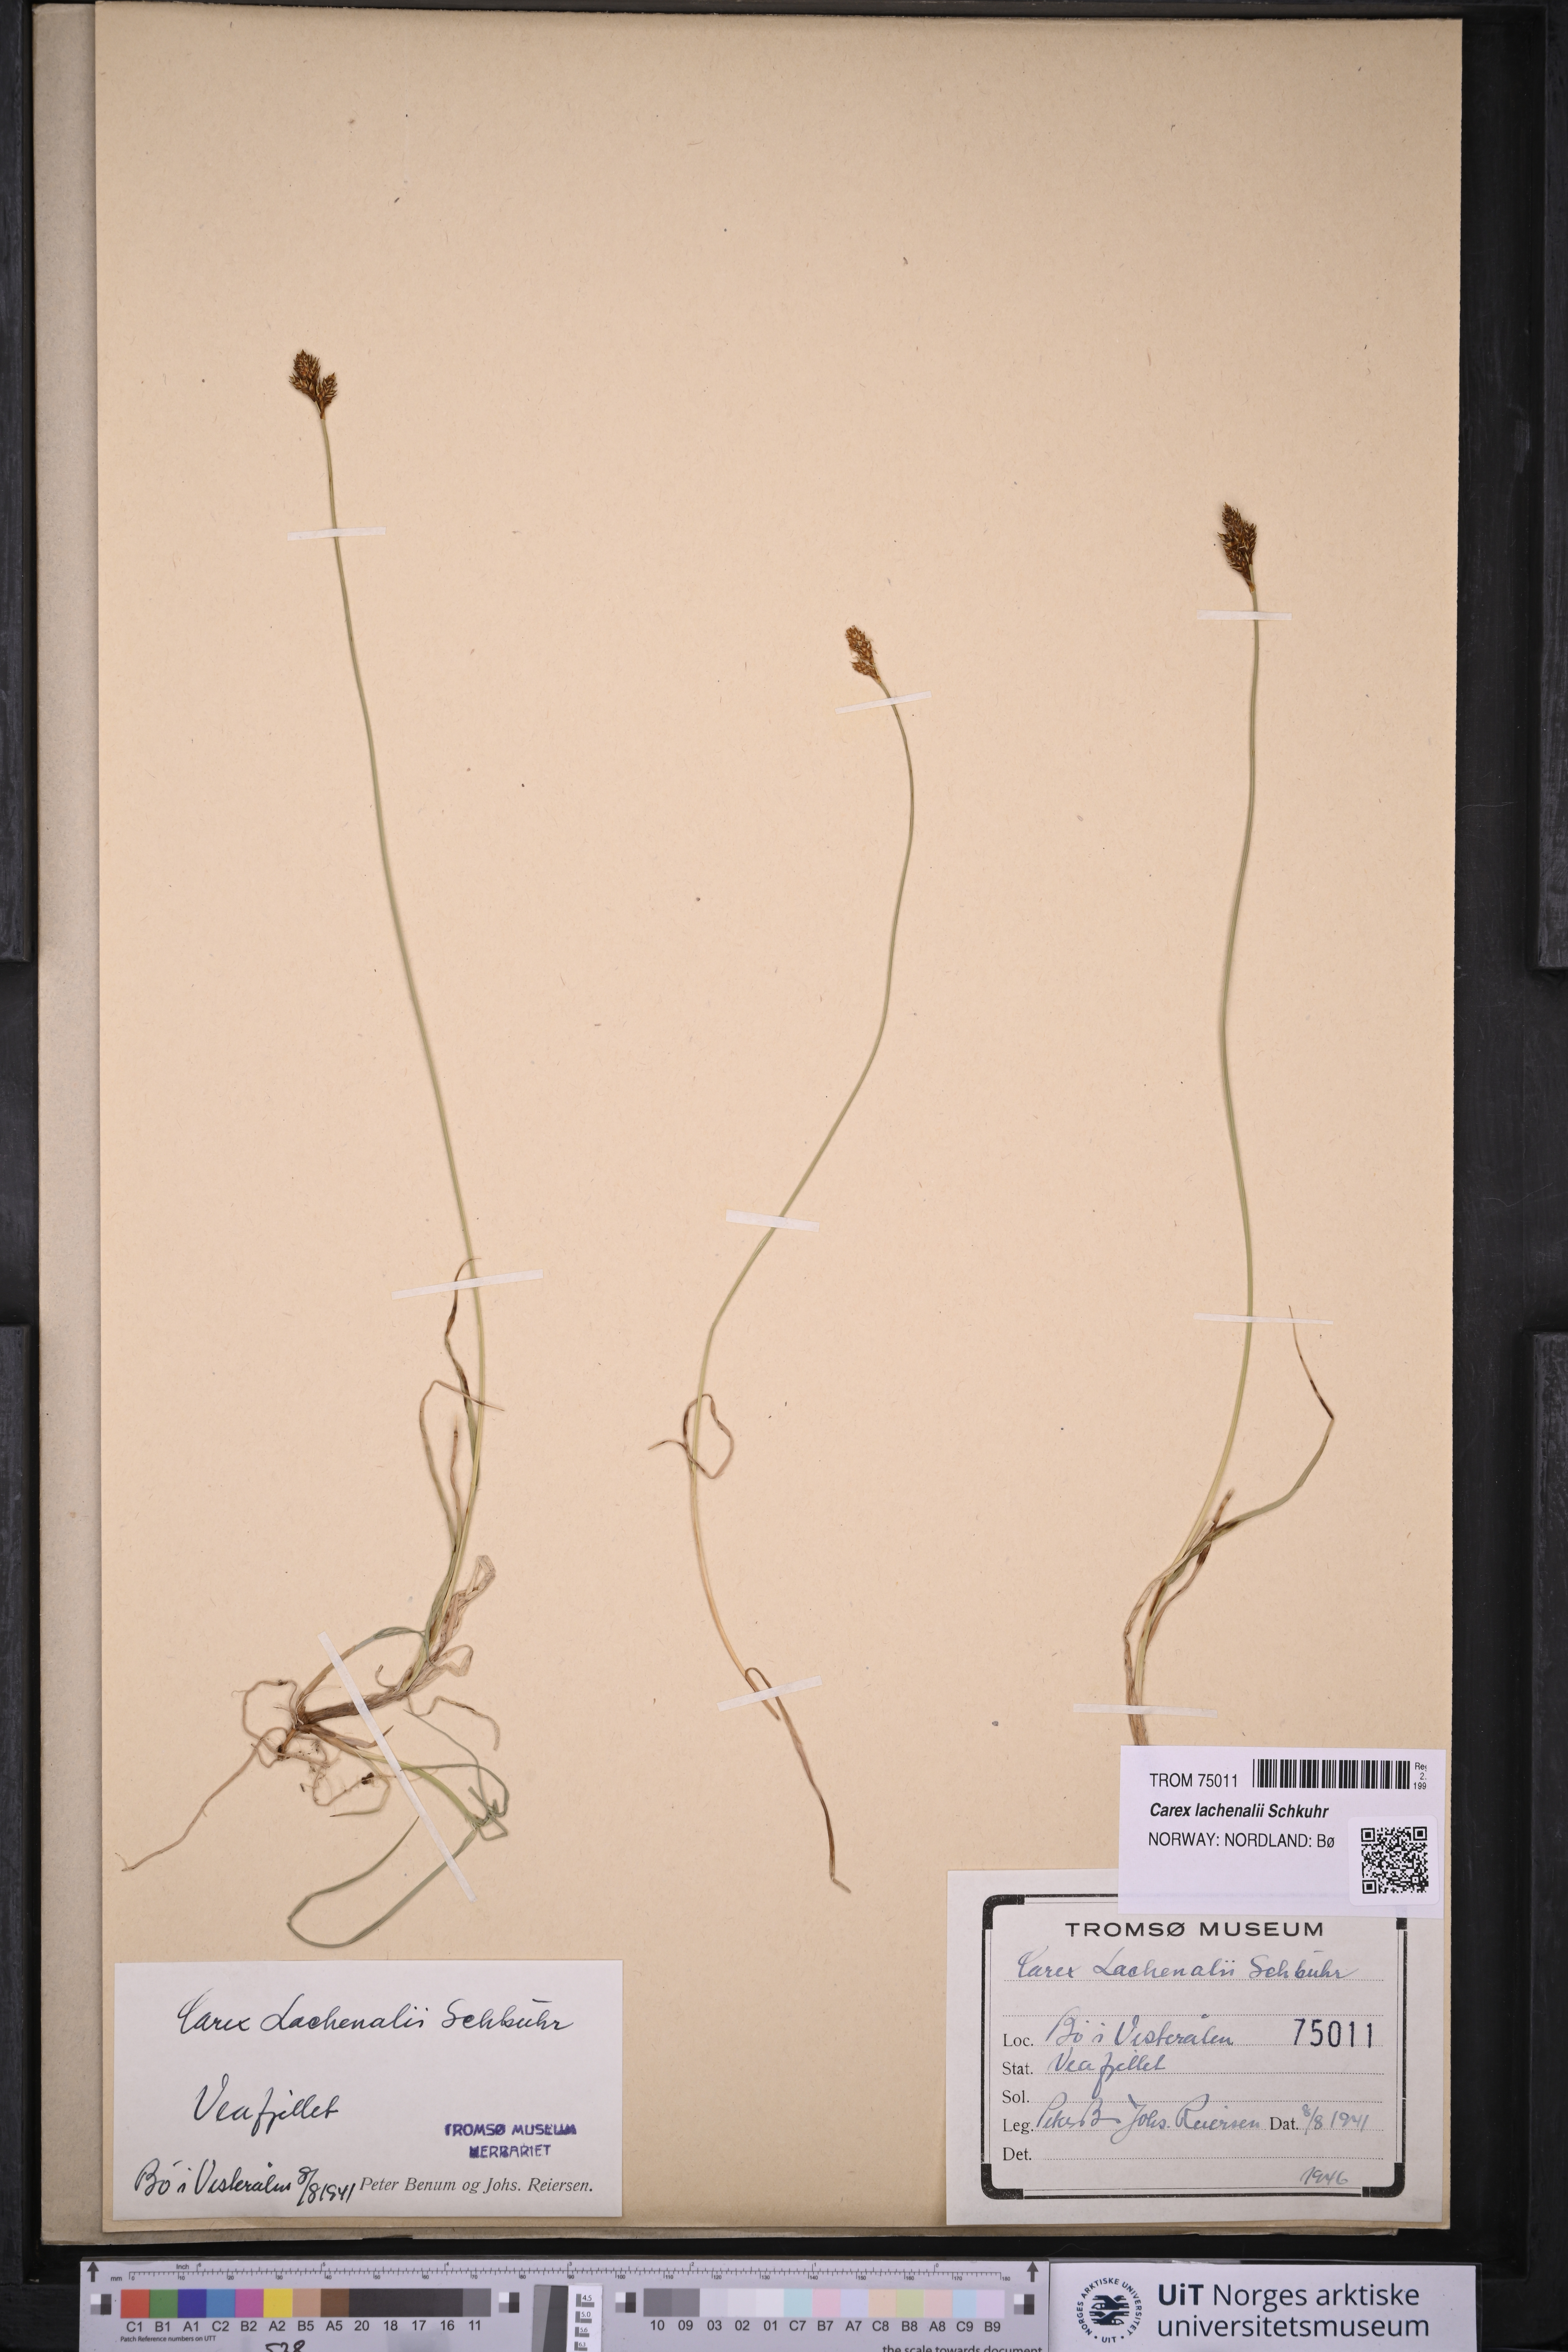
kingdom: Plantae
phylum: Tracheophyta
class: Liliopsida
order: Poales
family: Cyperaceae
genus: Carex
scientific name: Carex lachenalii
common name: Hare's-foot sedge
